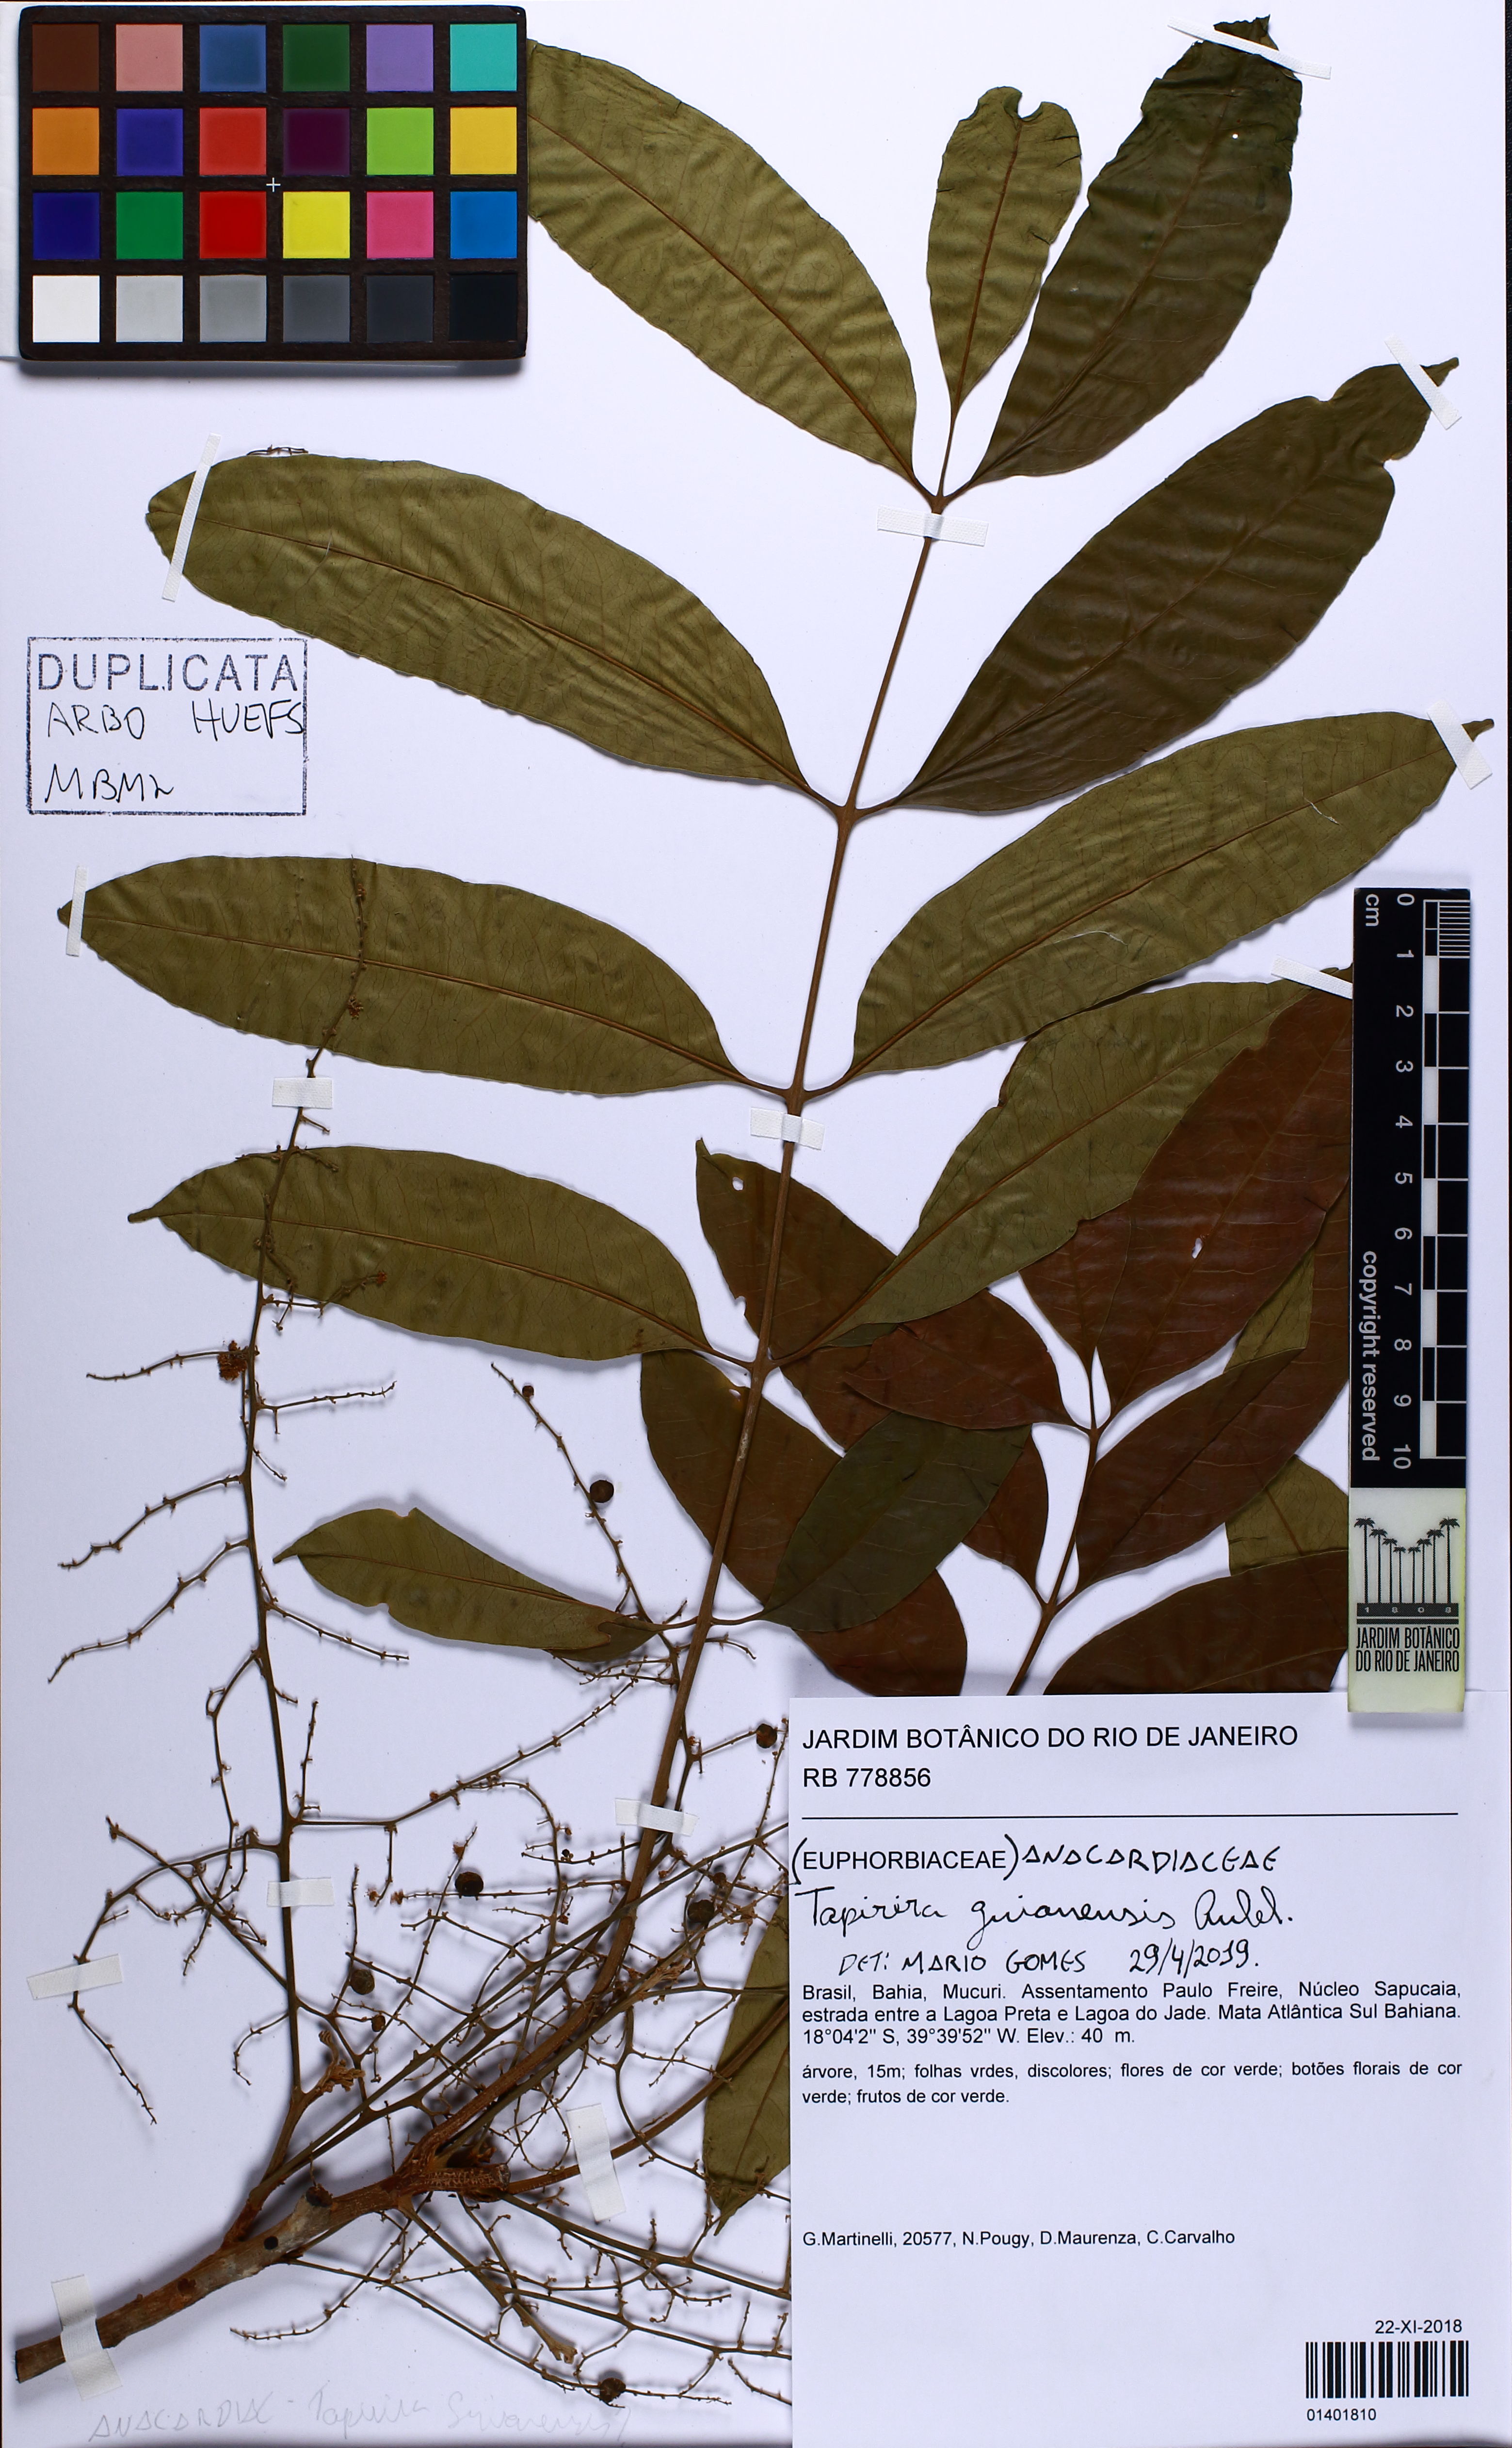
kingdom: Plantae
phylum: Tracheophyta
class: Magnoliopsida
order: Sapindales
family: Anacardiaceae
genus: Tapirira
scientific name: Tapirira guianensis
